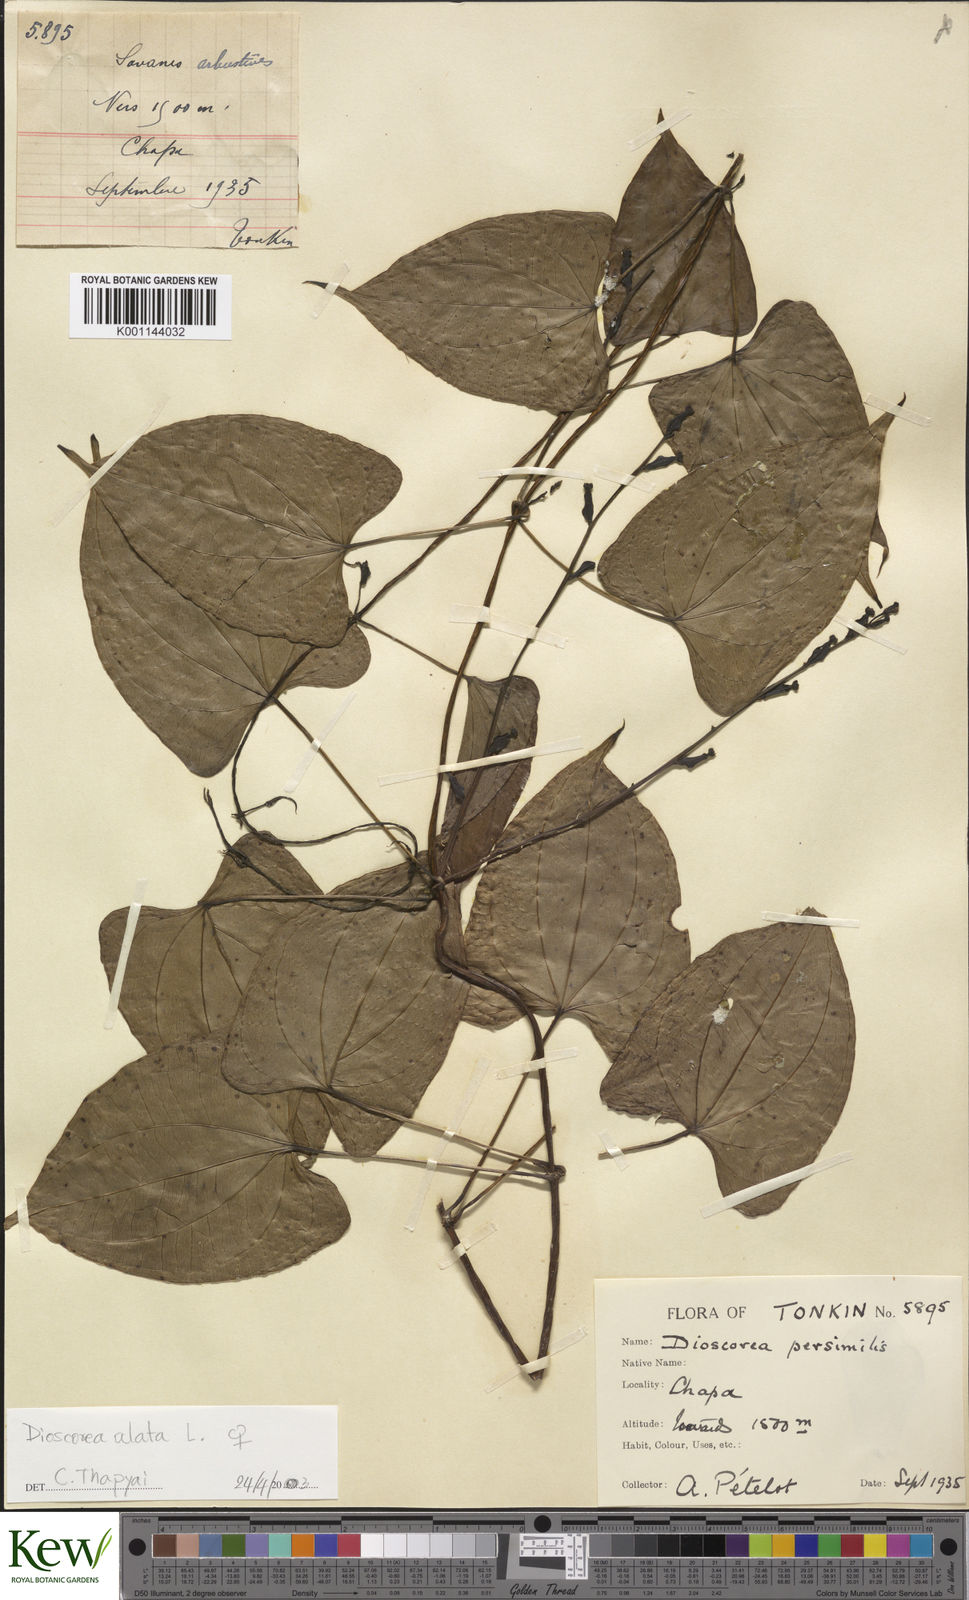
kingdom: Plantae
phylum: Tracheophyta
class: Liliopsida
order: Dioscoreales
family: Dioscoreaceae
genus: Dioscorea
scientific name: Dioscorea alata
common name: Water yam
